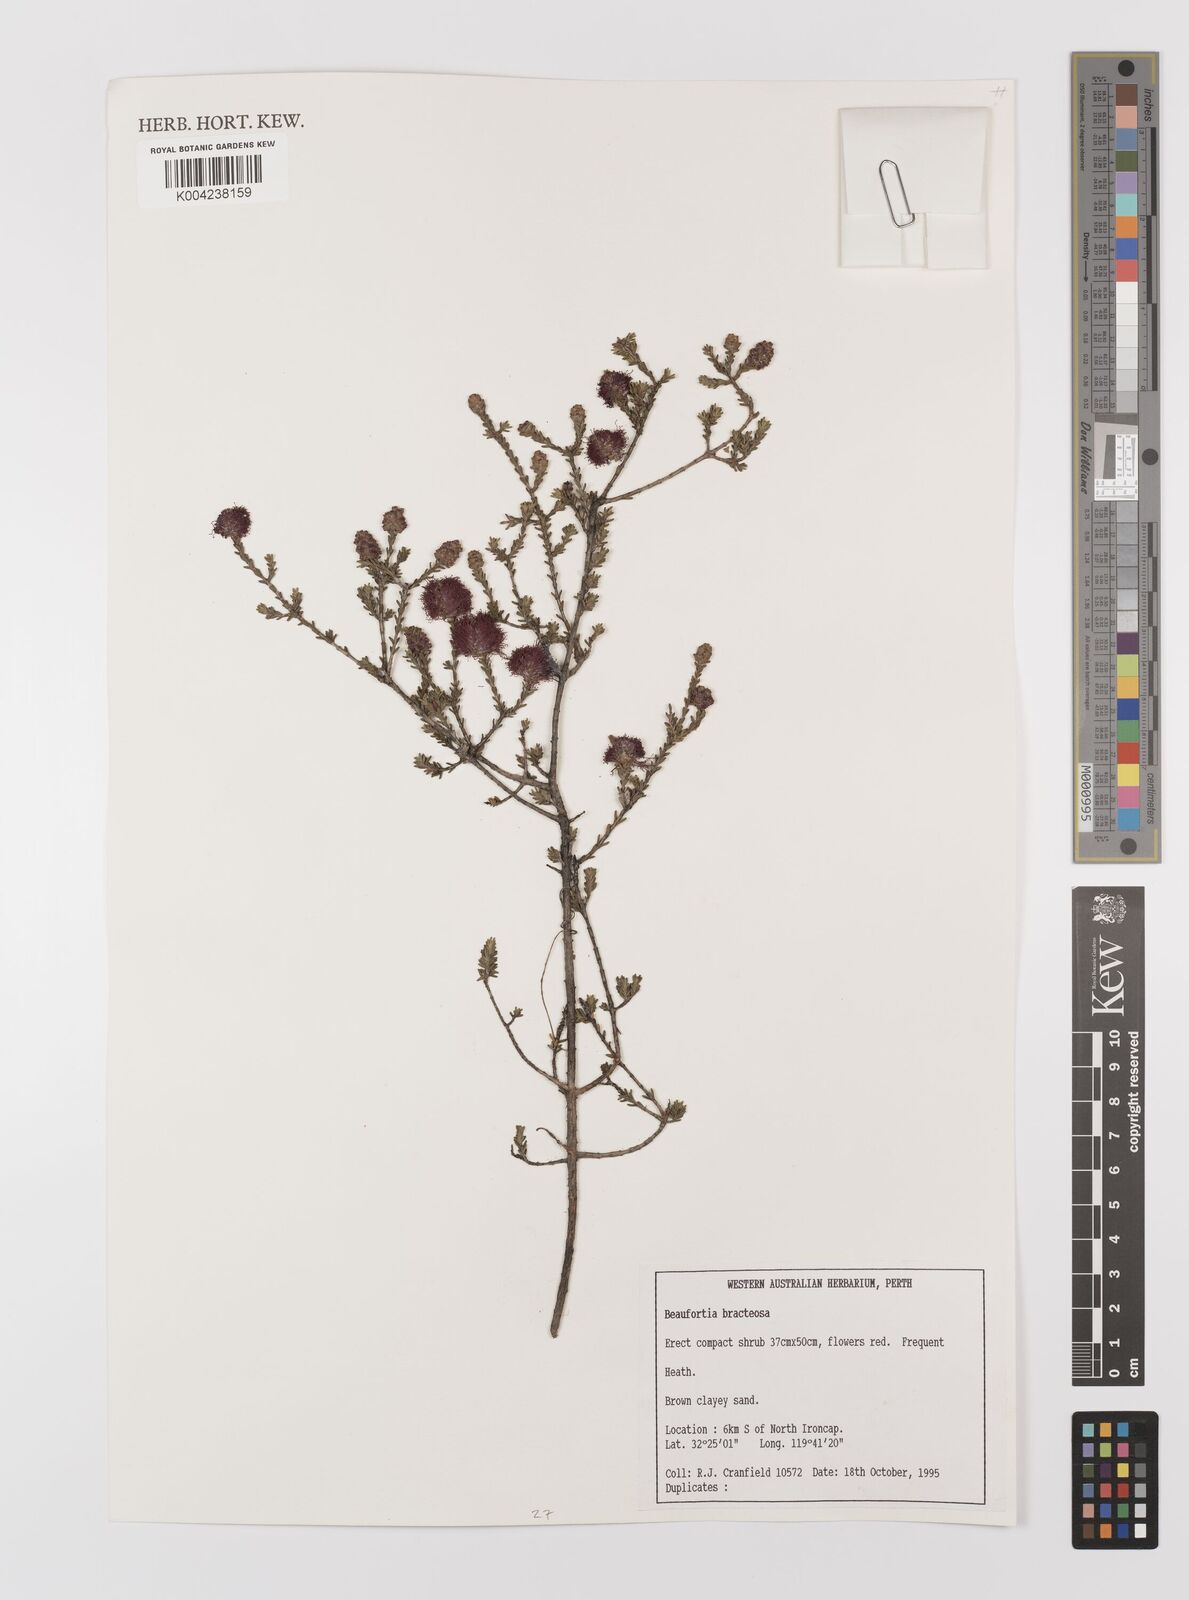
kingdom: Plantae
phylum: Tracheophyta
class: Magnoliopsida
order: Myrtales
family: Myrtaceae
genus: Melaleuca
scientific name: Melaleuca glumacea
